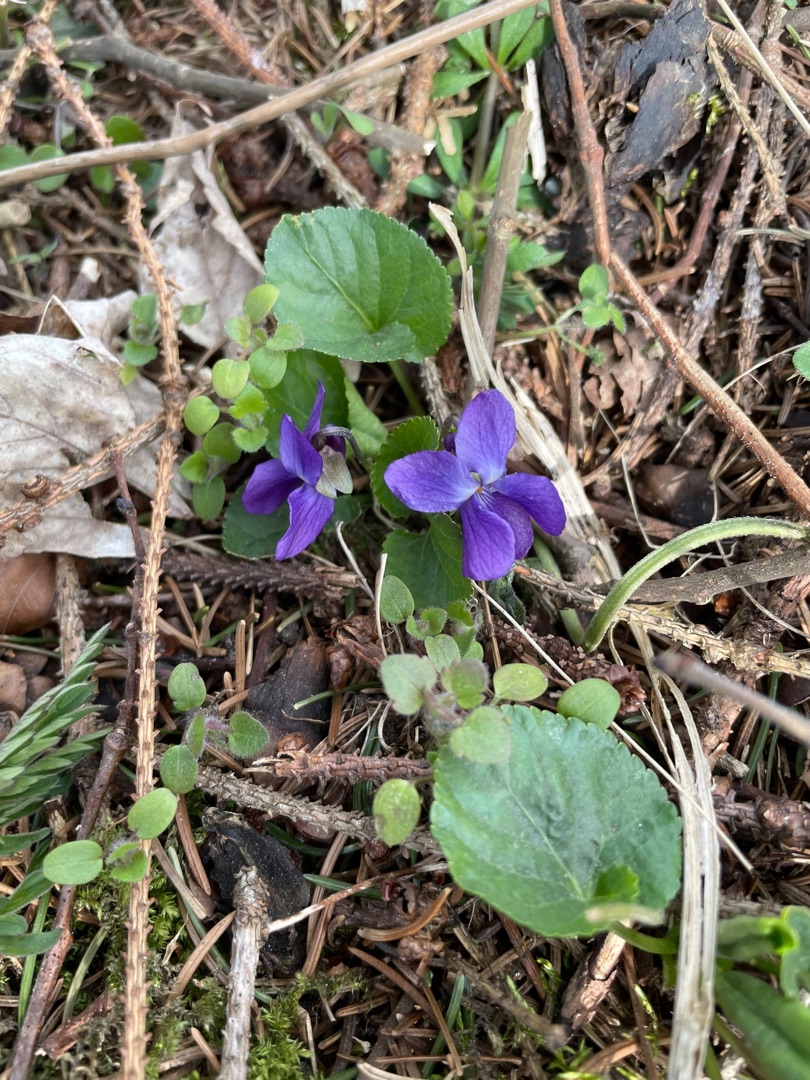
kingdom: Plantae
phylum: Tracheophyta
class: Magnoliopsida
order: Malpighiales
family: Violaceae
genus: Viola
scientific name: Viola odorata
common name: Marts-viol
